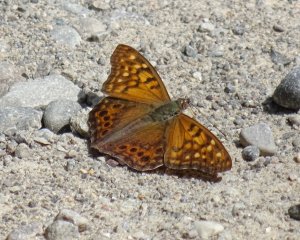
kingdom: Animalia
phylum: Arthropoda
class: Insecta
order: Lepidoptera
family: Nymphalidae
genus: Asterocampa
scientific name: Asterocampa clyton
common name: Tawny Emperor
